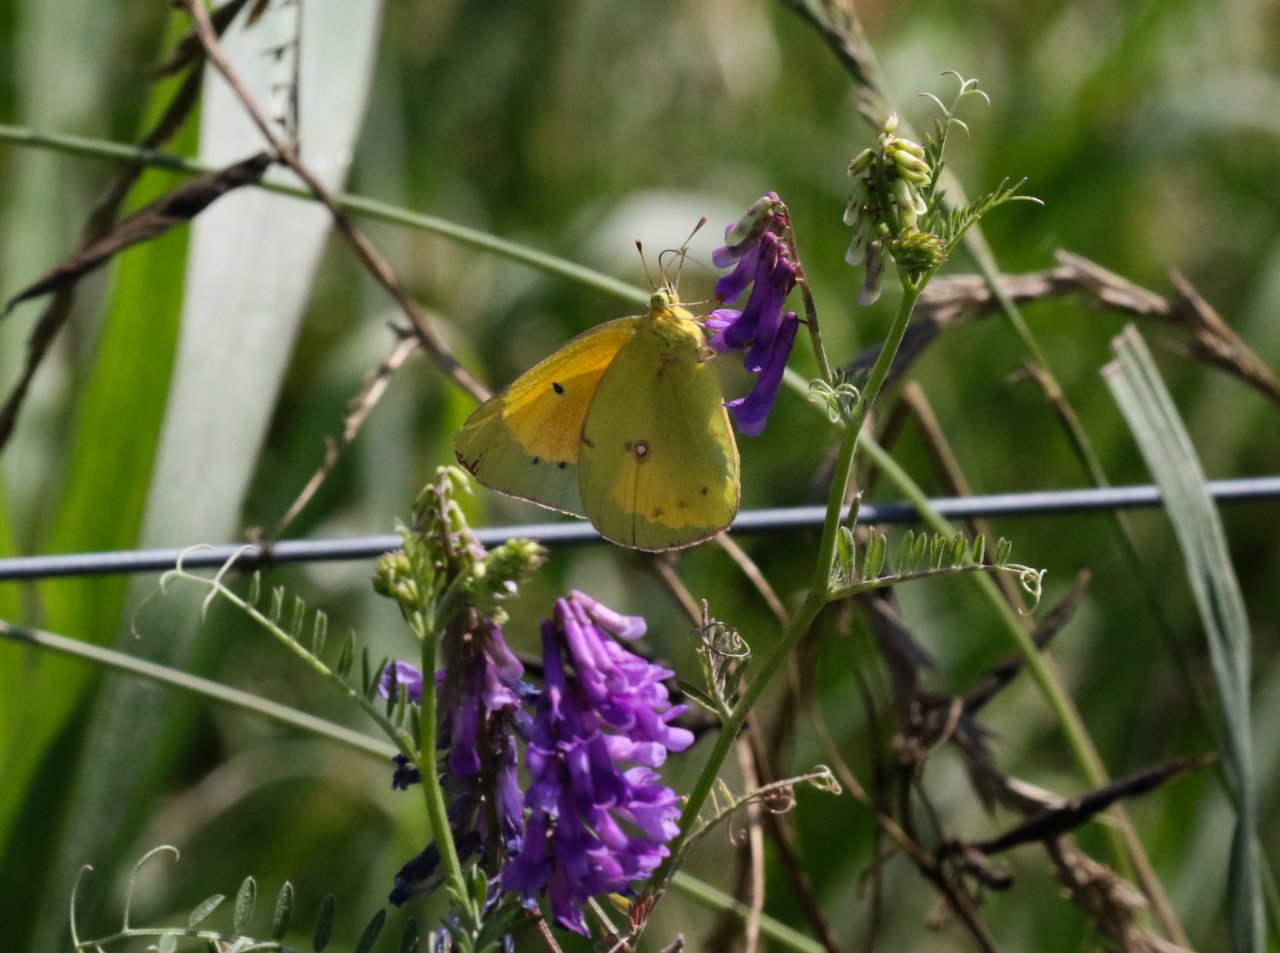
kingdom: Animalia
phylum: Arthropoda
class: Insecta
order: Lepidoptera
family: Pieridae
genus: Colias
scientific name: Colias eurytheme
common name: Orange Sulphur
